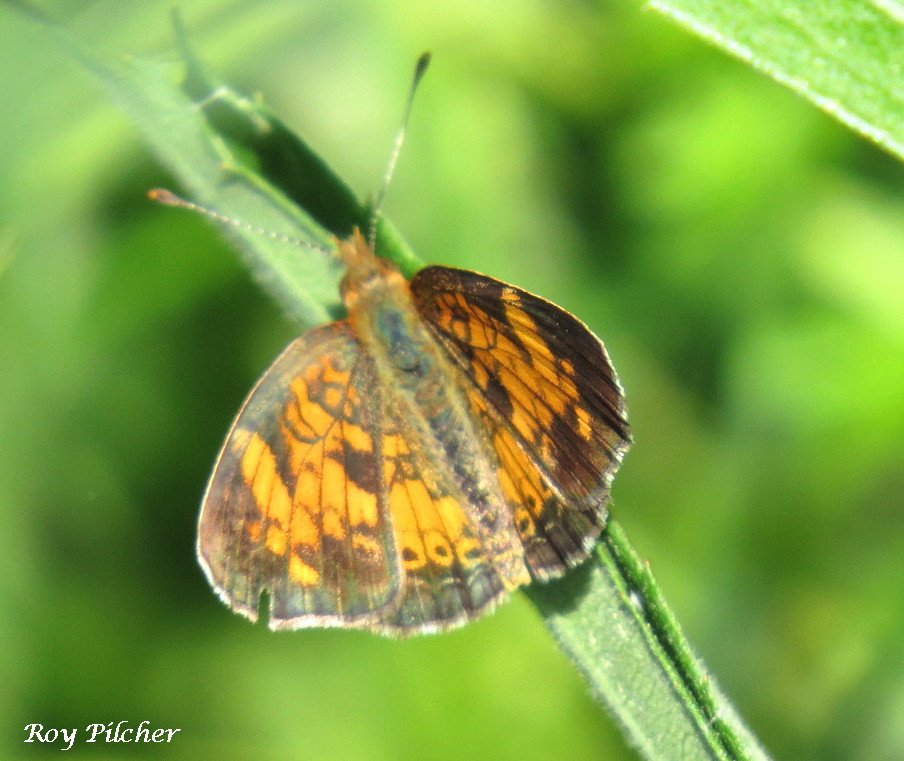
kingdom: Animalia
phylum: Arthropoda
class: Insecta
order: Lepidoptera
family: Nymphalidae
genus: Phyciodes
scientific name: Phyciodes
